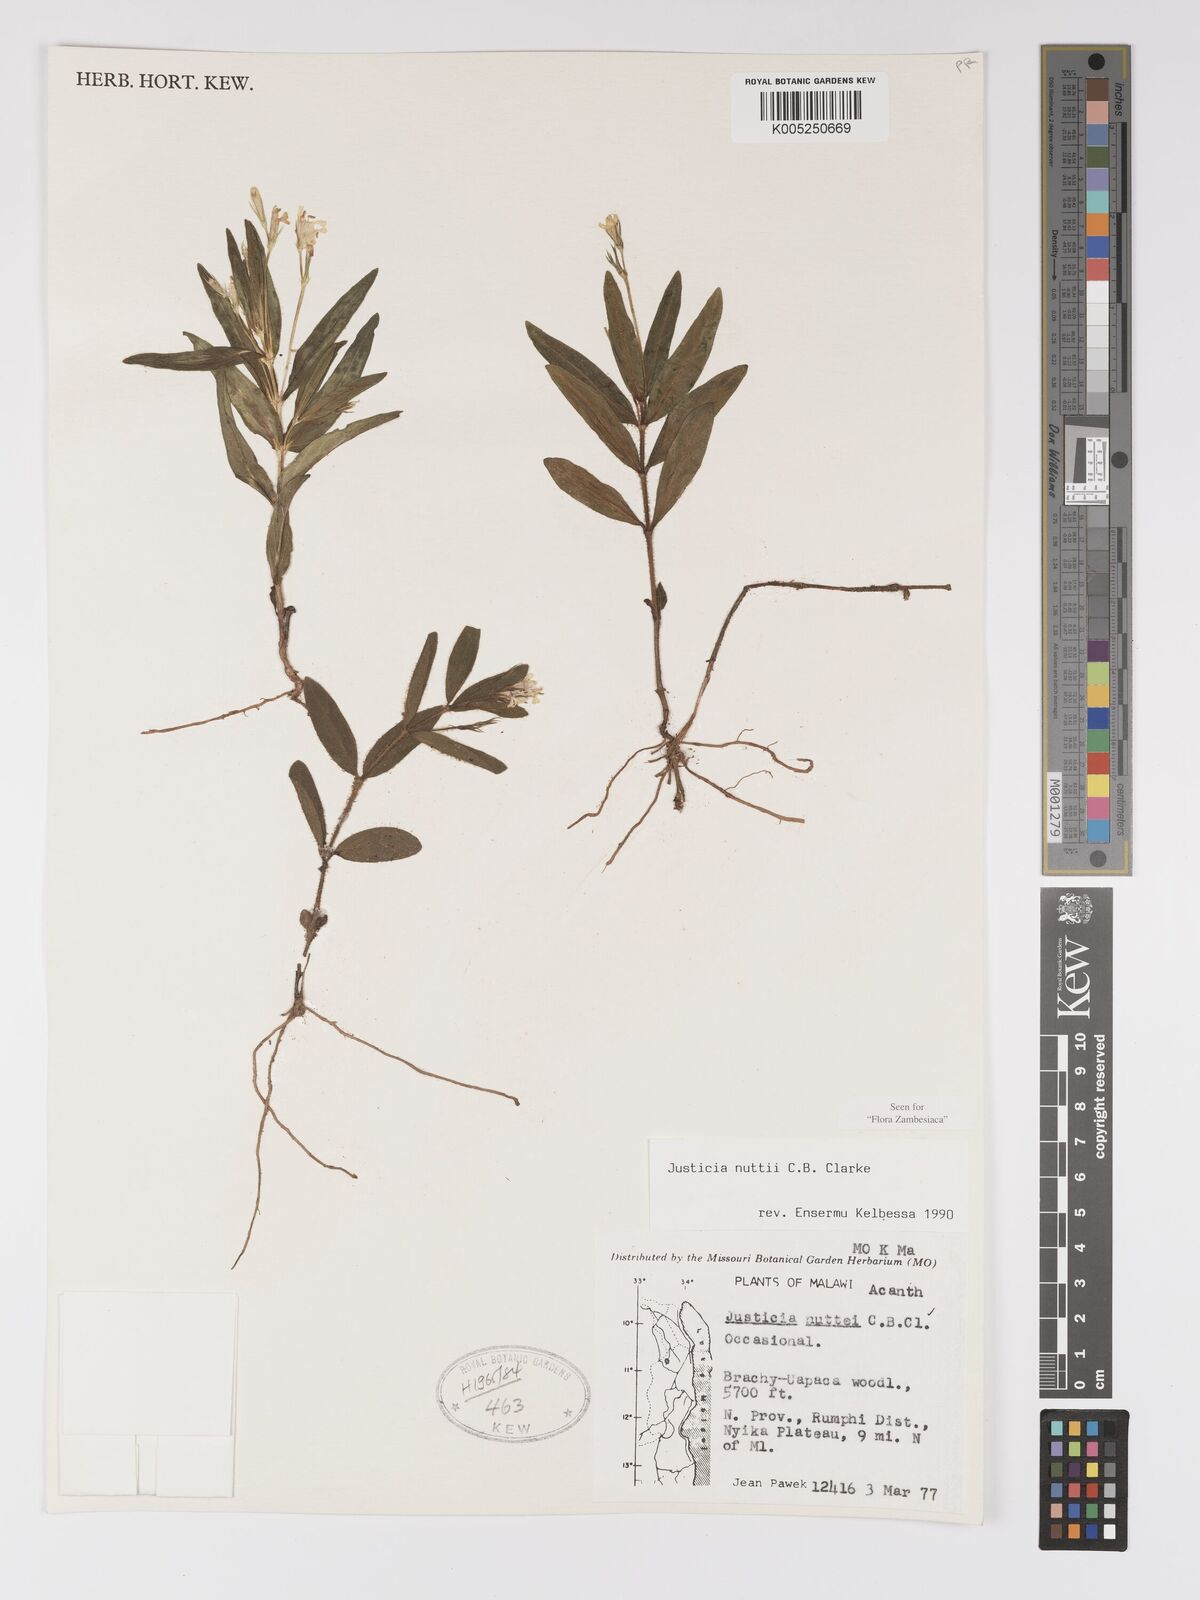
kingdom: Plantae
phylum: Tracheophyta
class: Magnoliopsida
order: Lamiales
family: Acanthaceae
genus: Justicia
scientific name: Justicia nuttii
